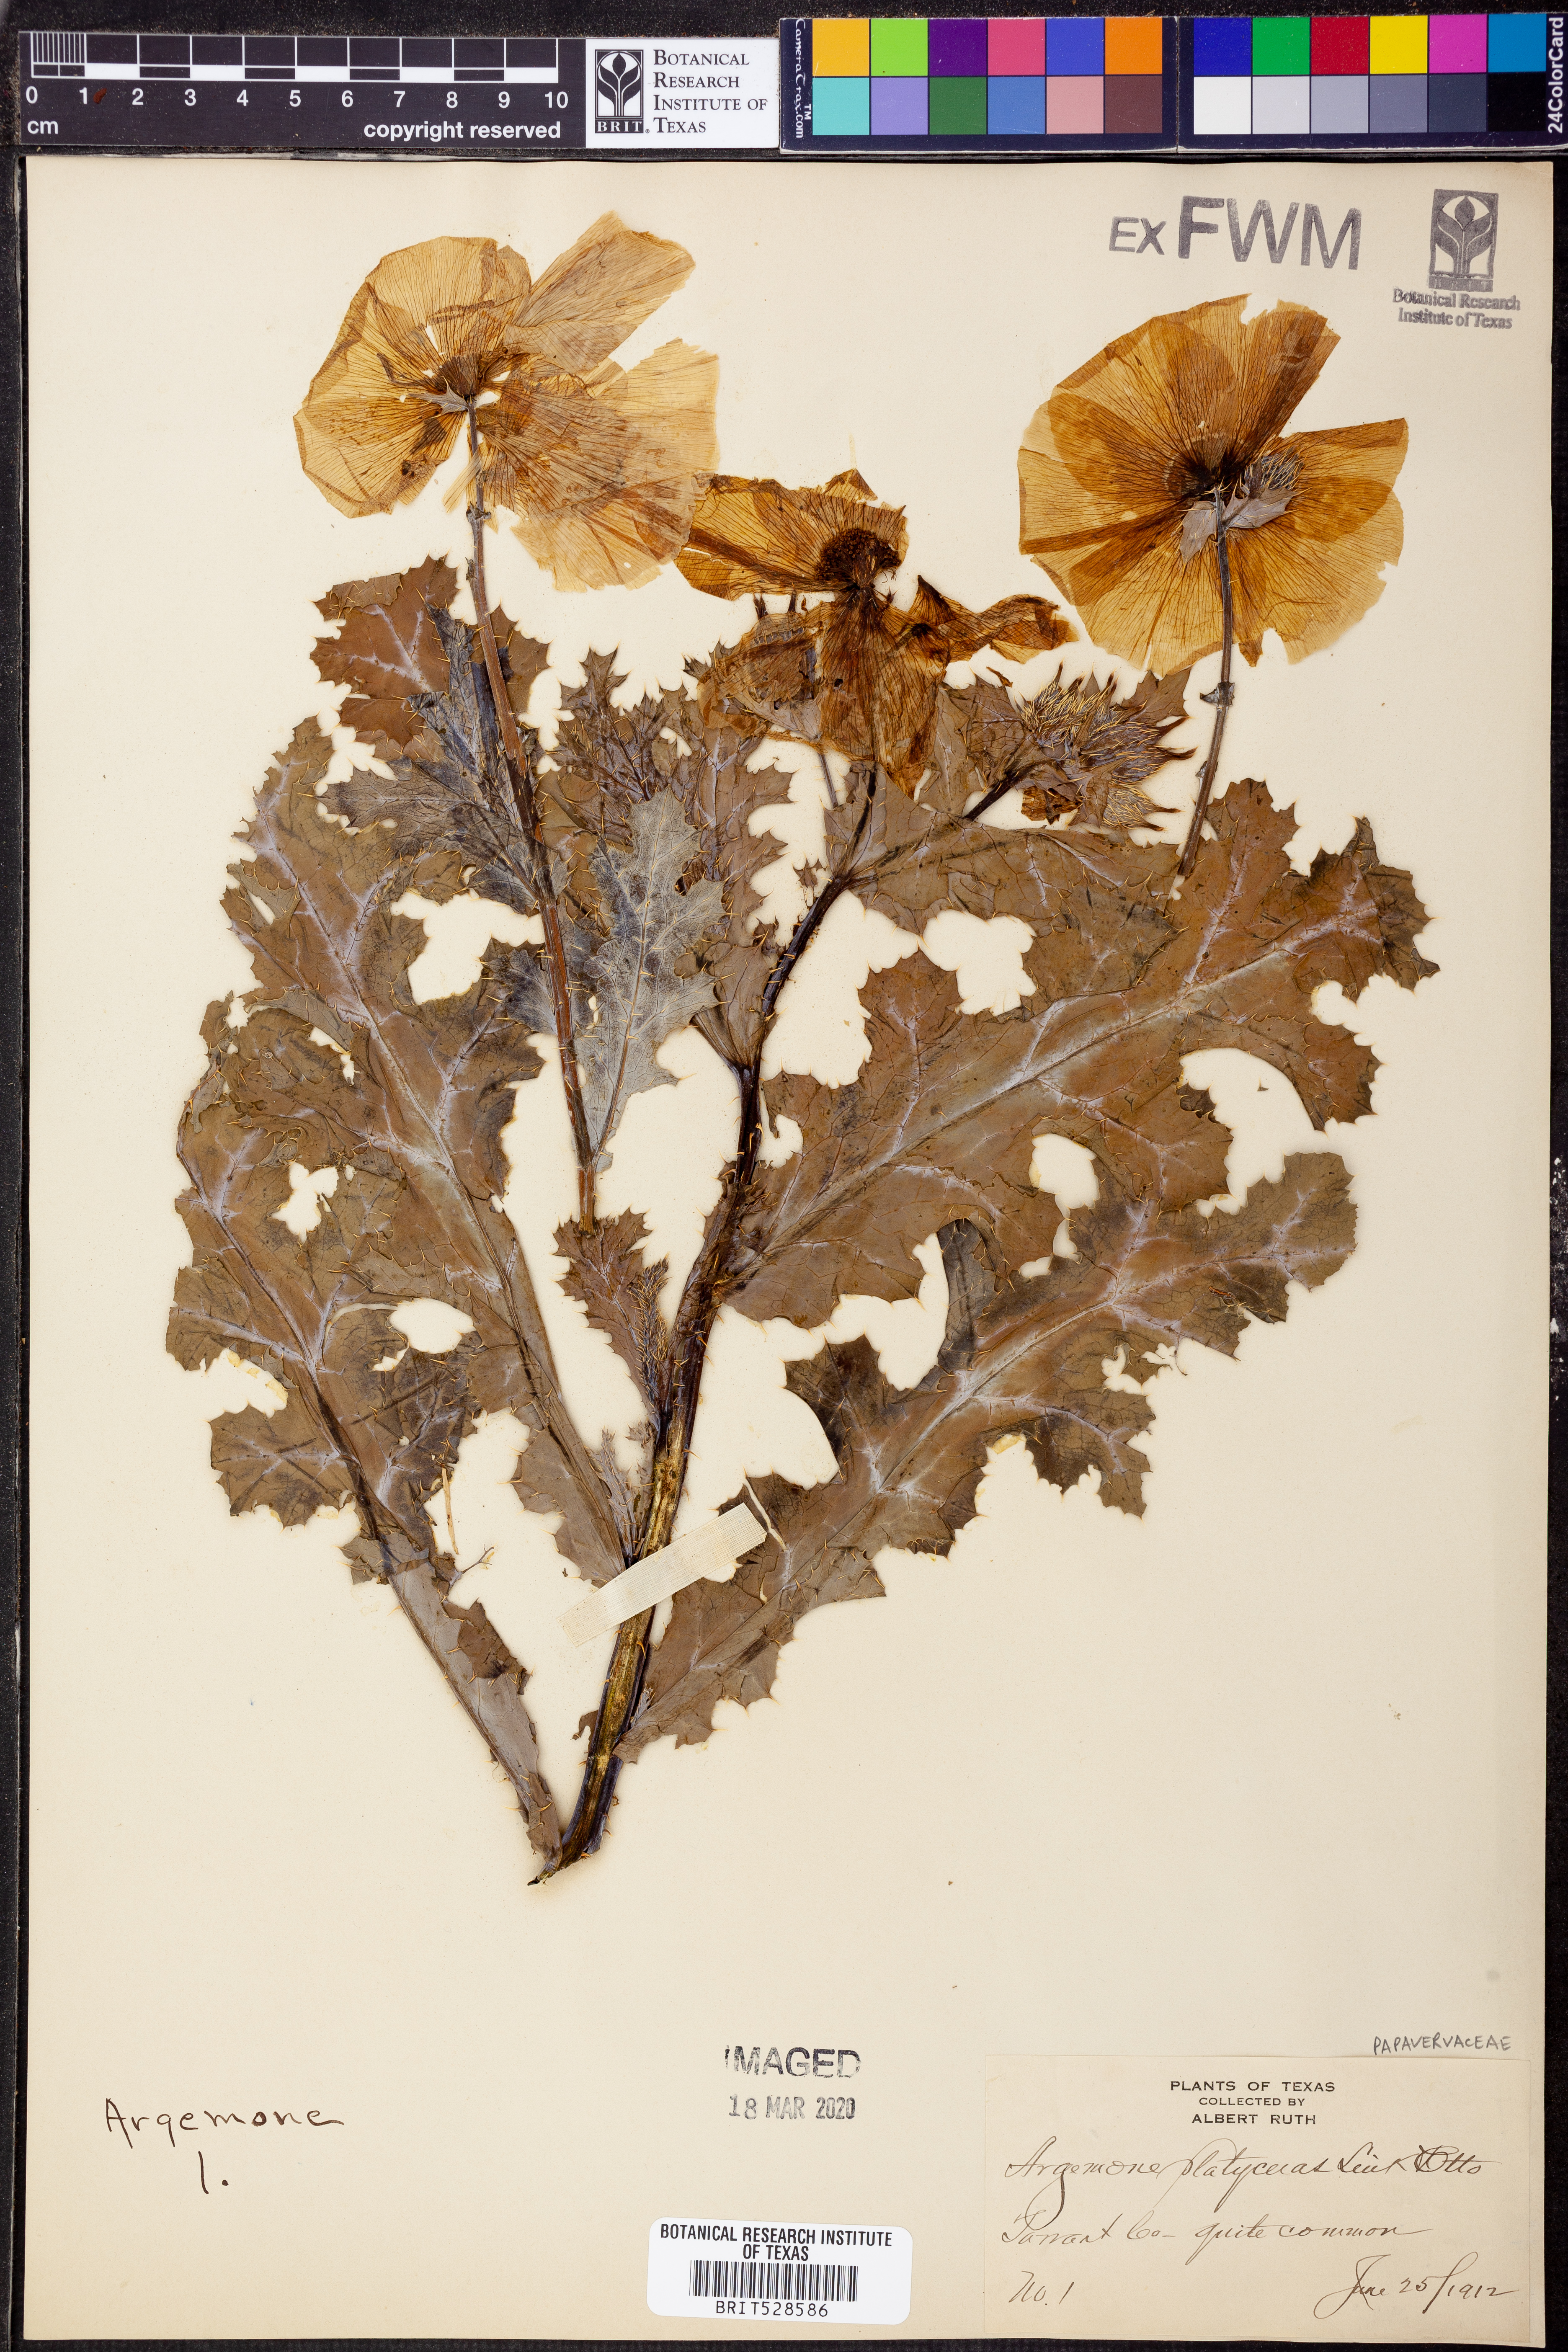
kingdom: Plantae
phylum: Tracheophyta
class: Magnoliopsida
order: Ranunculales
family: Papaveraceae
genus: Argemone
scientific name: Argemone platyceras
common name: Crested-poppy
